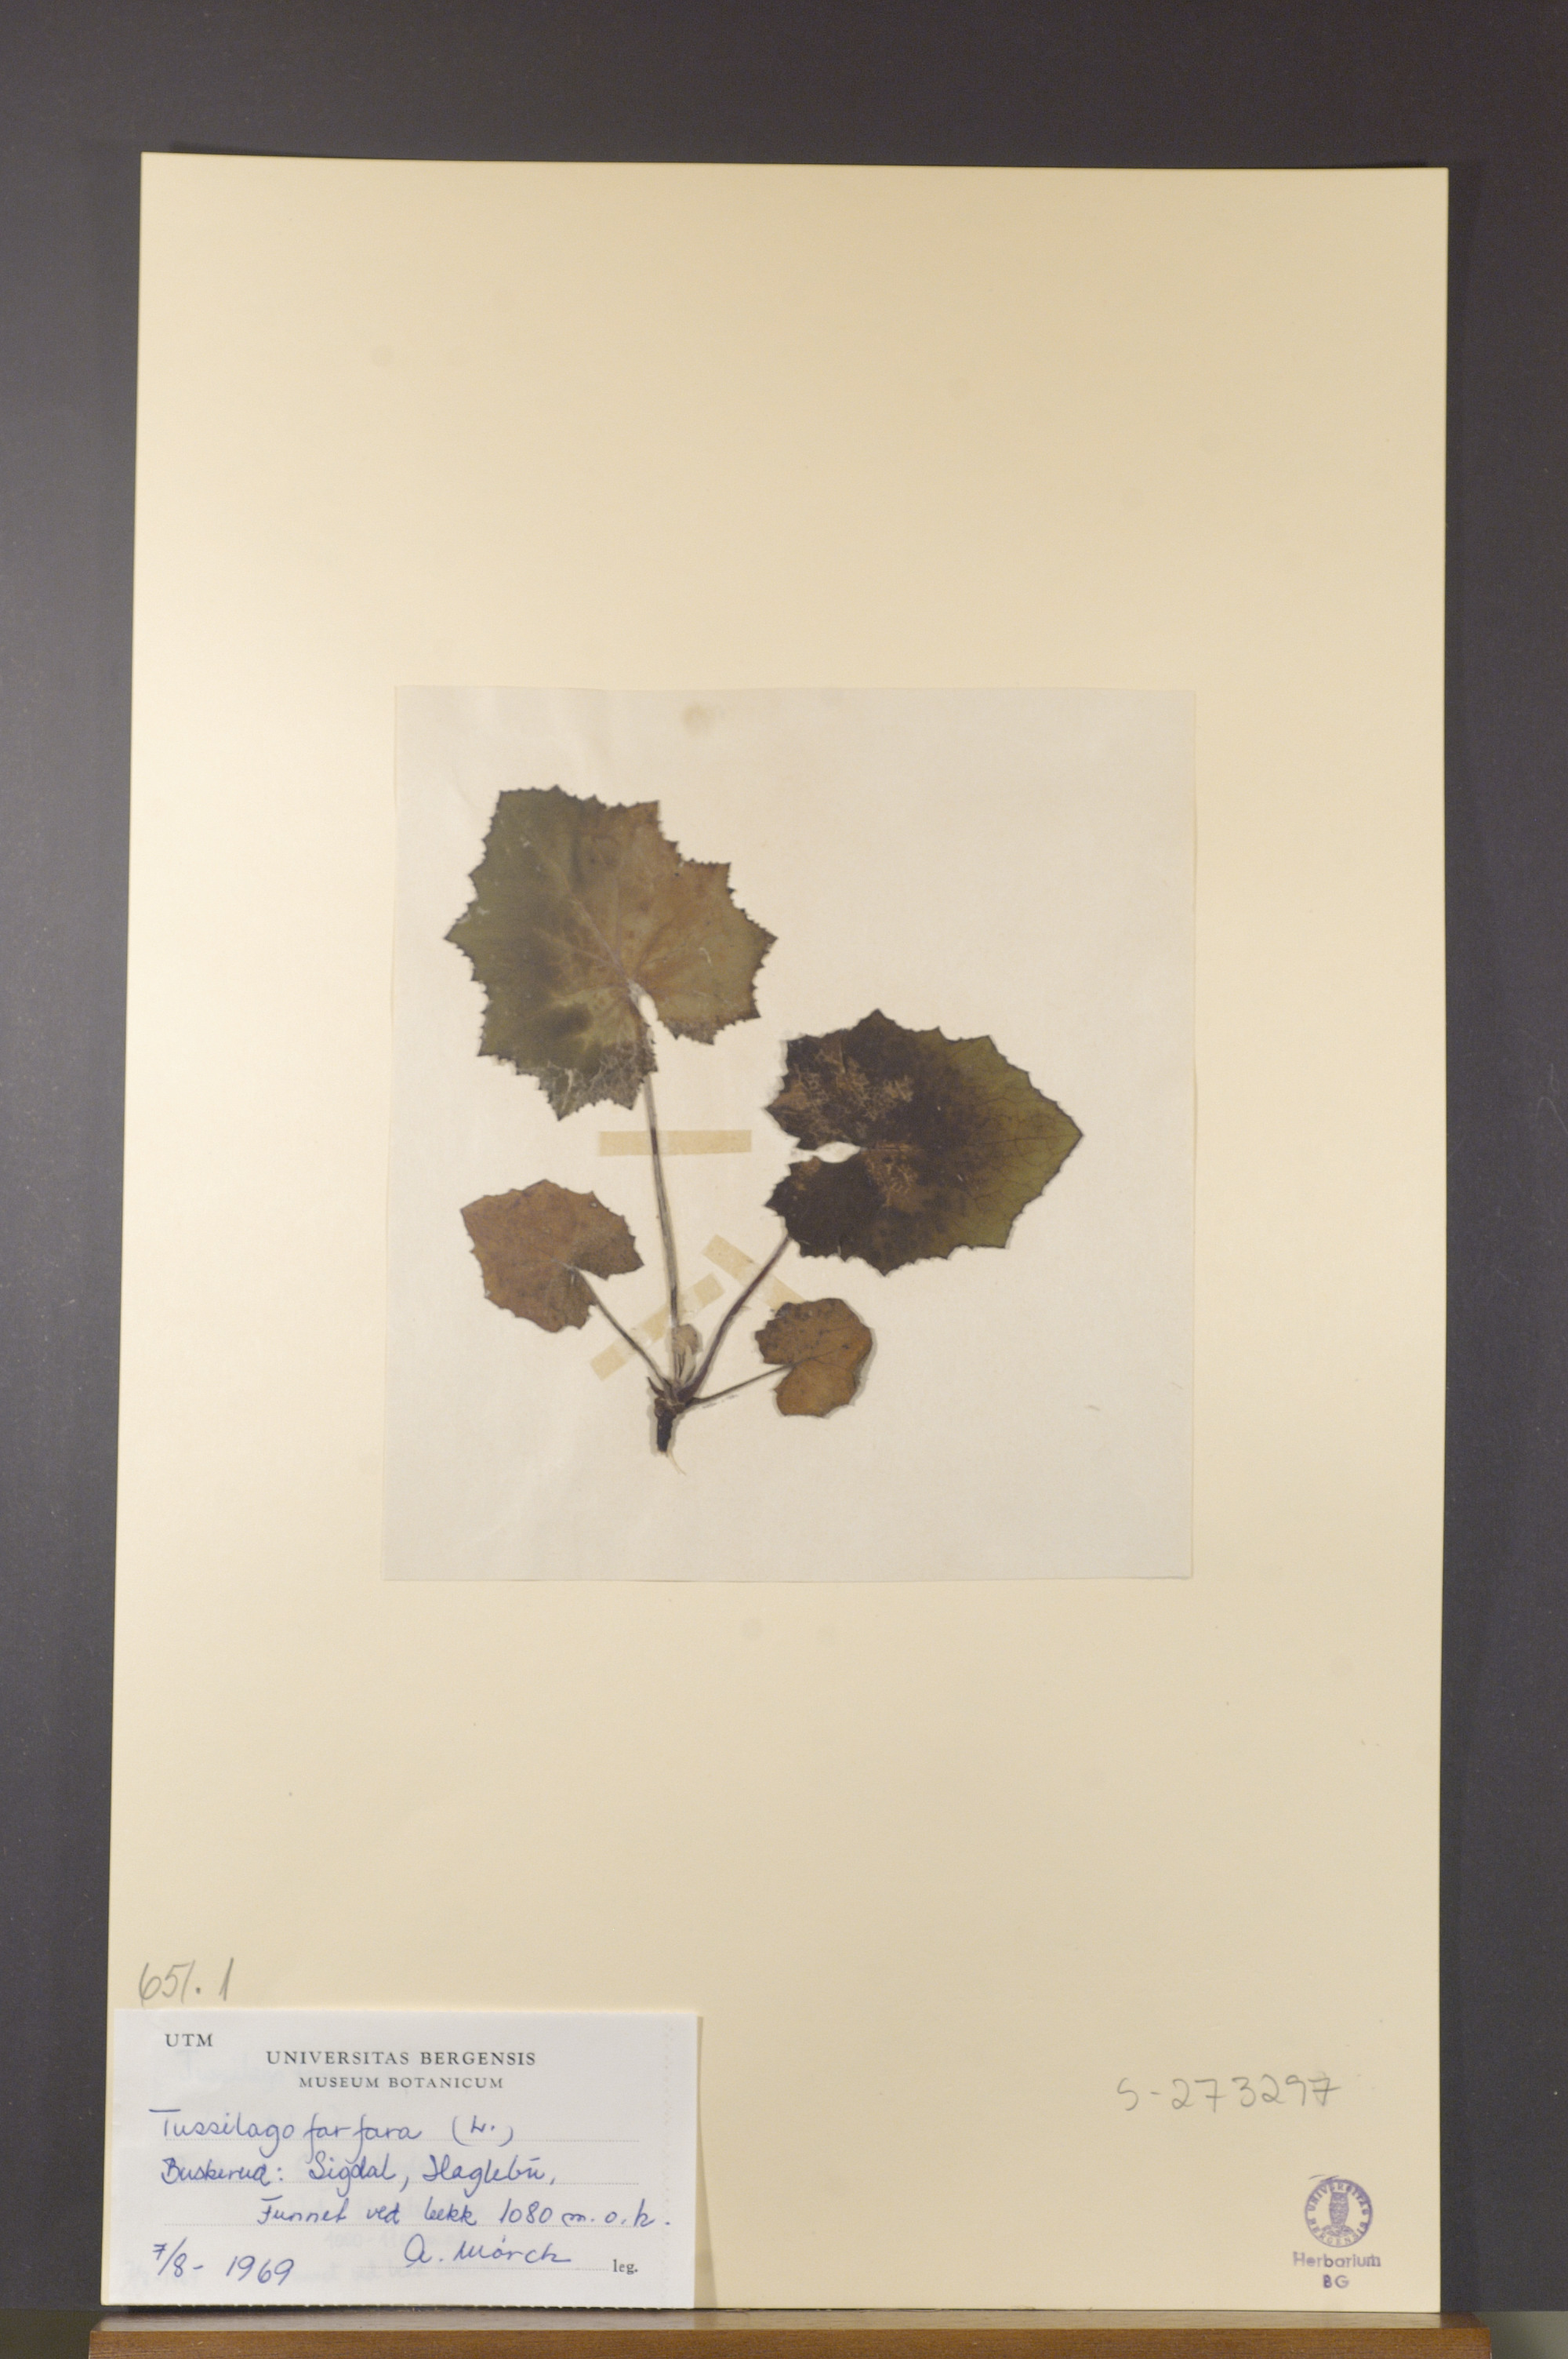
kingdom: Plantae
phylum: Tracheophyta
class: Magnoliopsida
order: Asterales
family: Asteraceae
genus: Tussilago
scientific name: Tussilago farfara
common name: Coltsfoot
